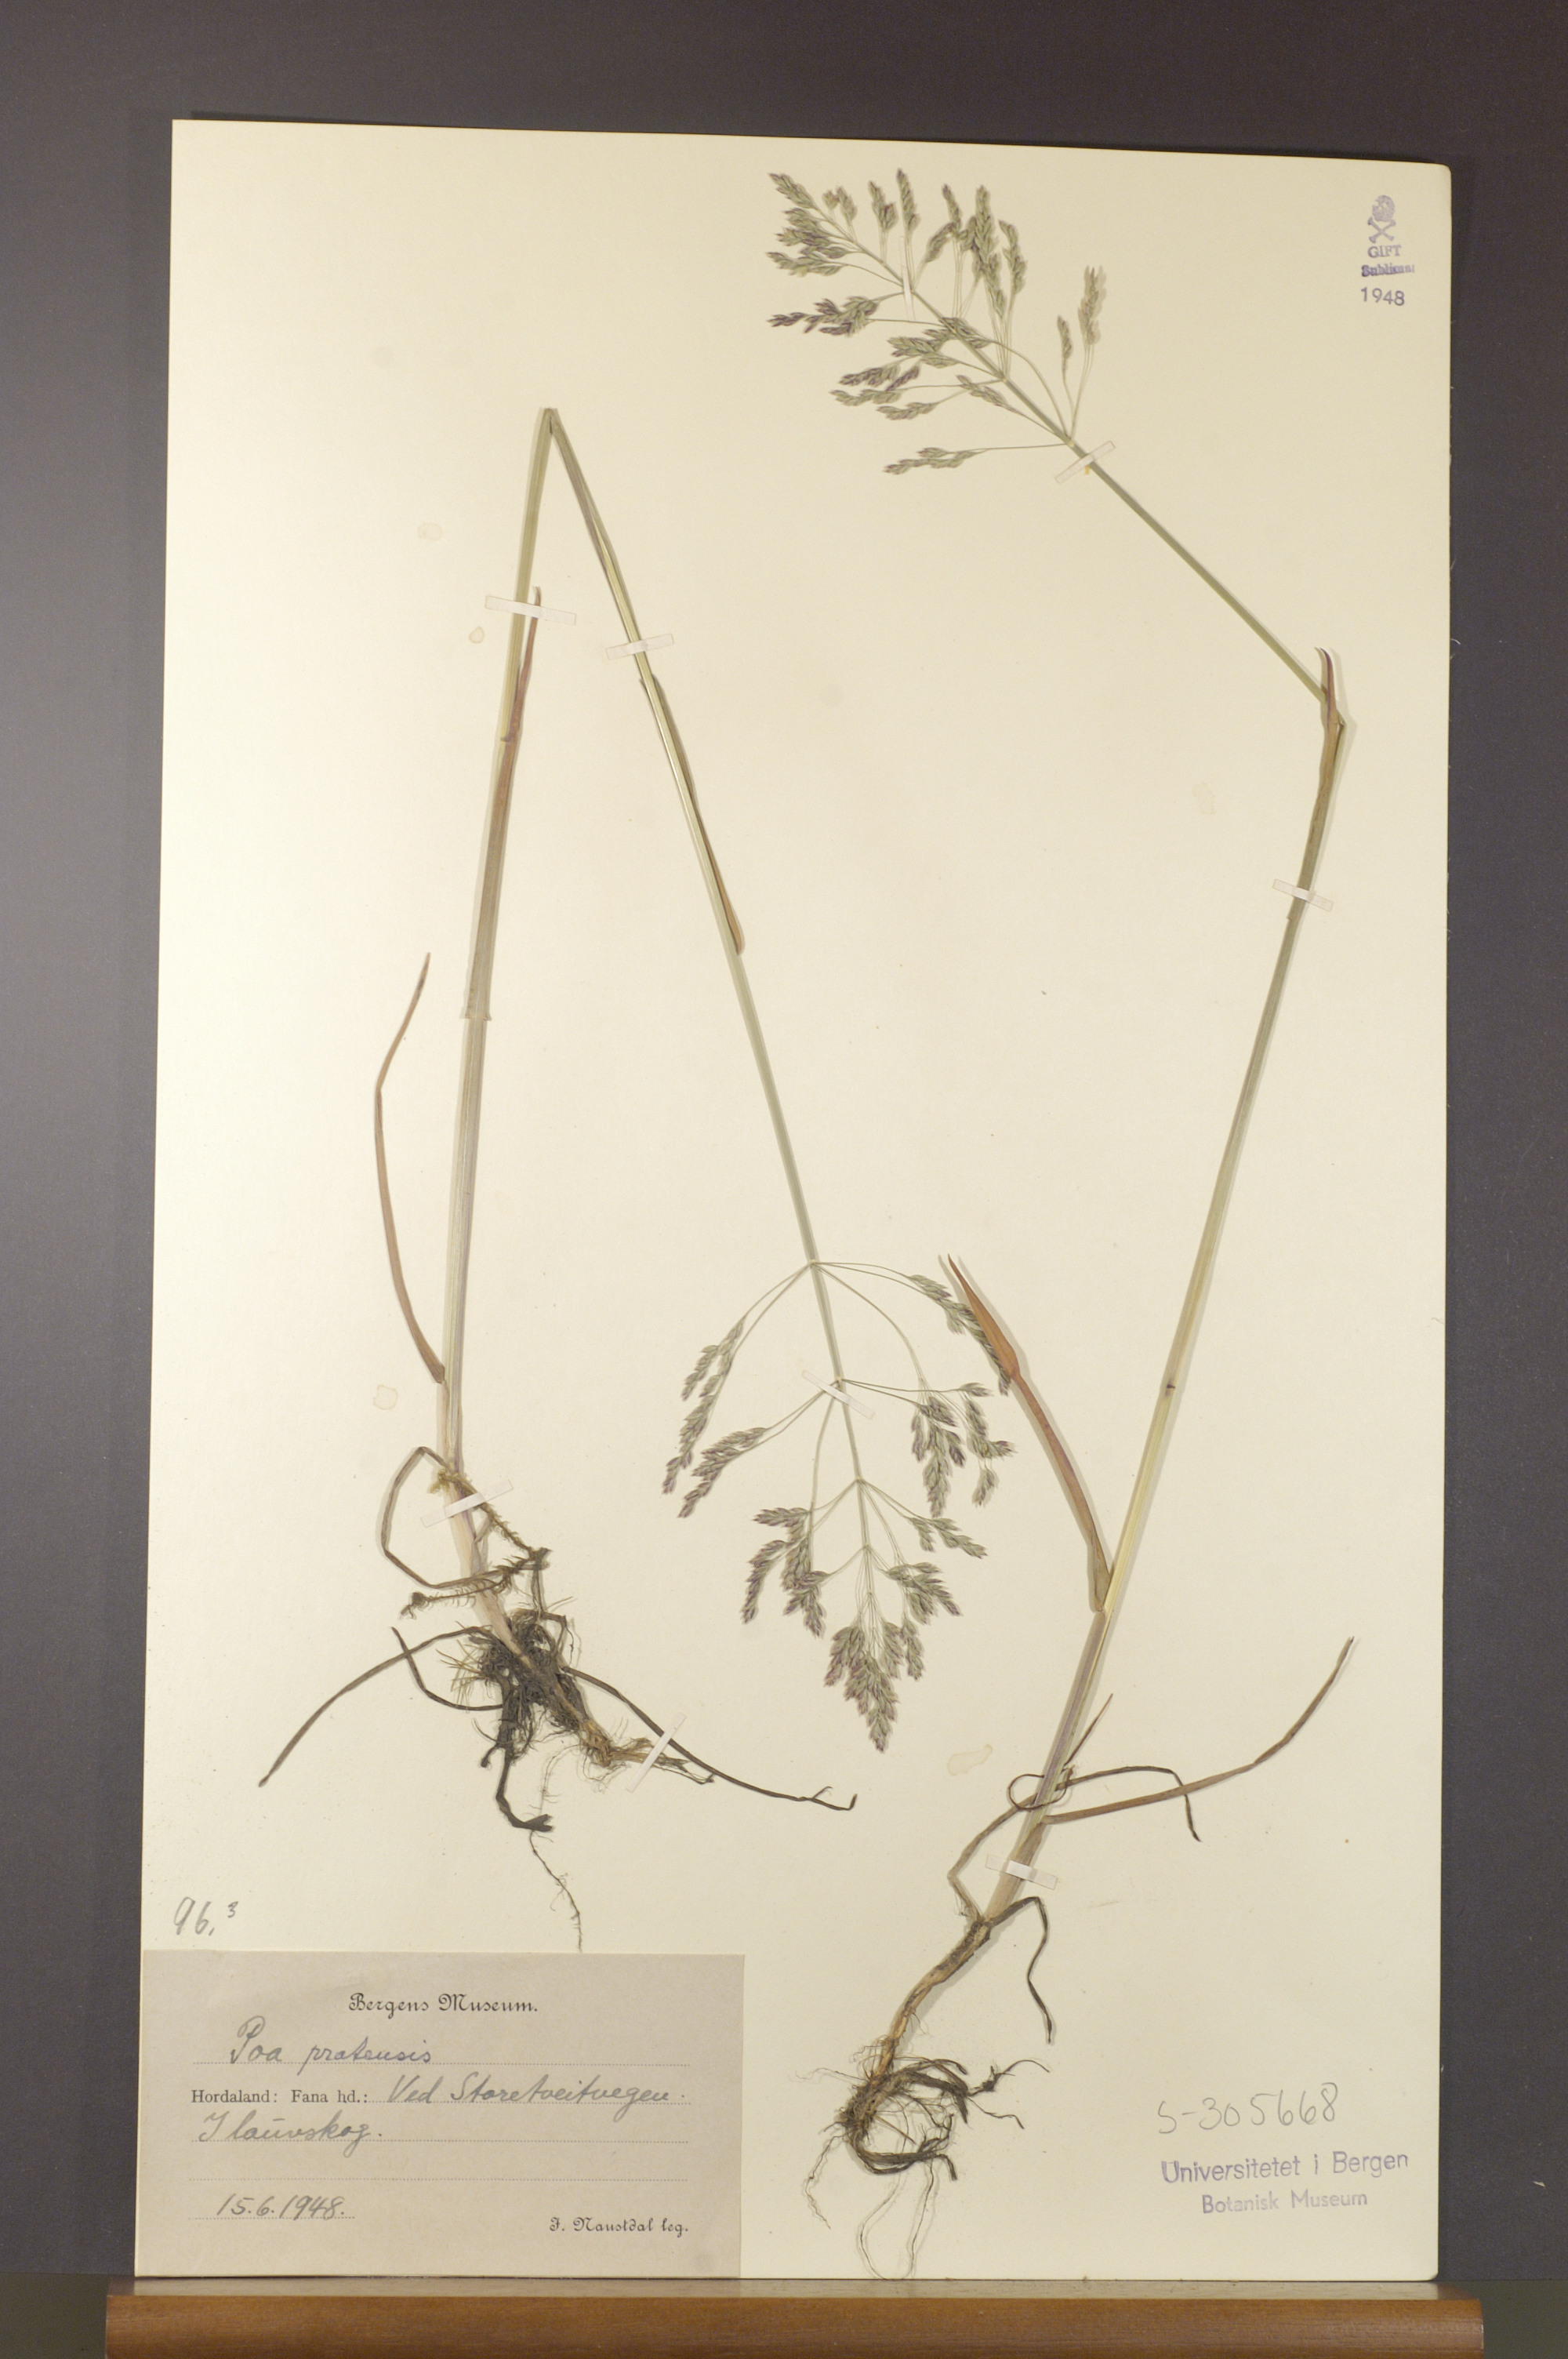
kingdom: Plantae
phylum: Tracheophyta
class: Liliopsida
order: Poales
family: Poaceae
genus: Poa
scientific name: Poa pratensis
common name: Kentucky bluegrass
